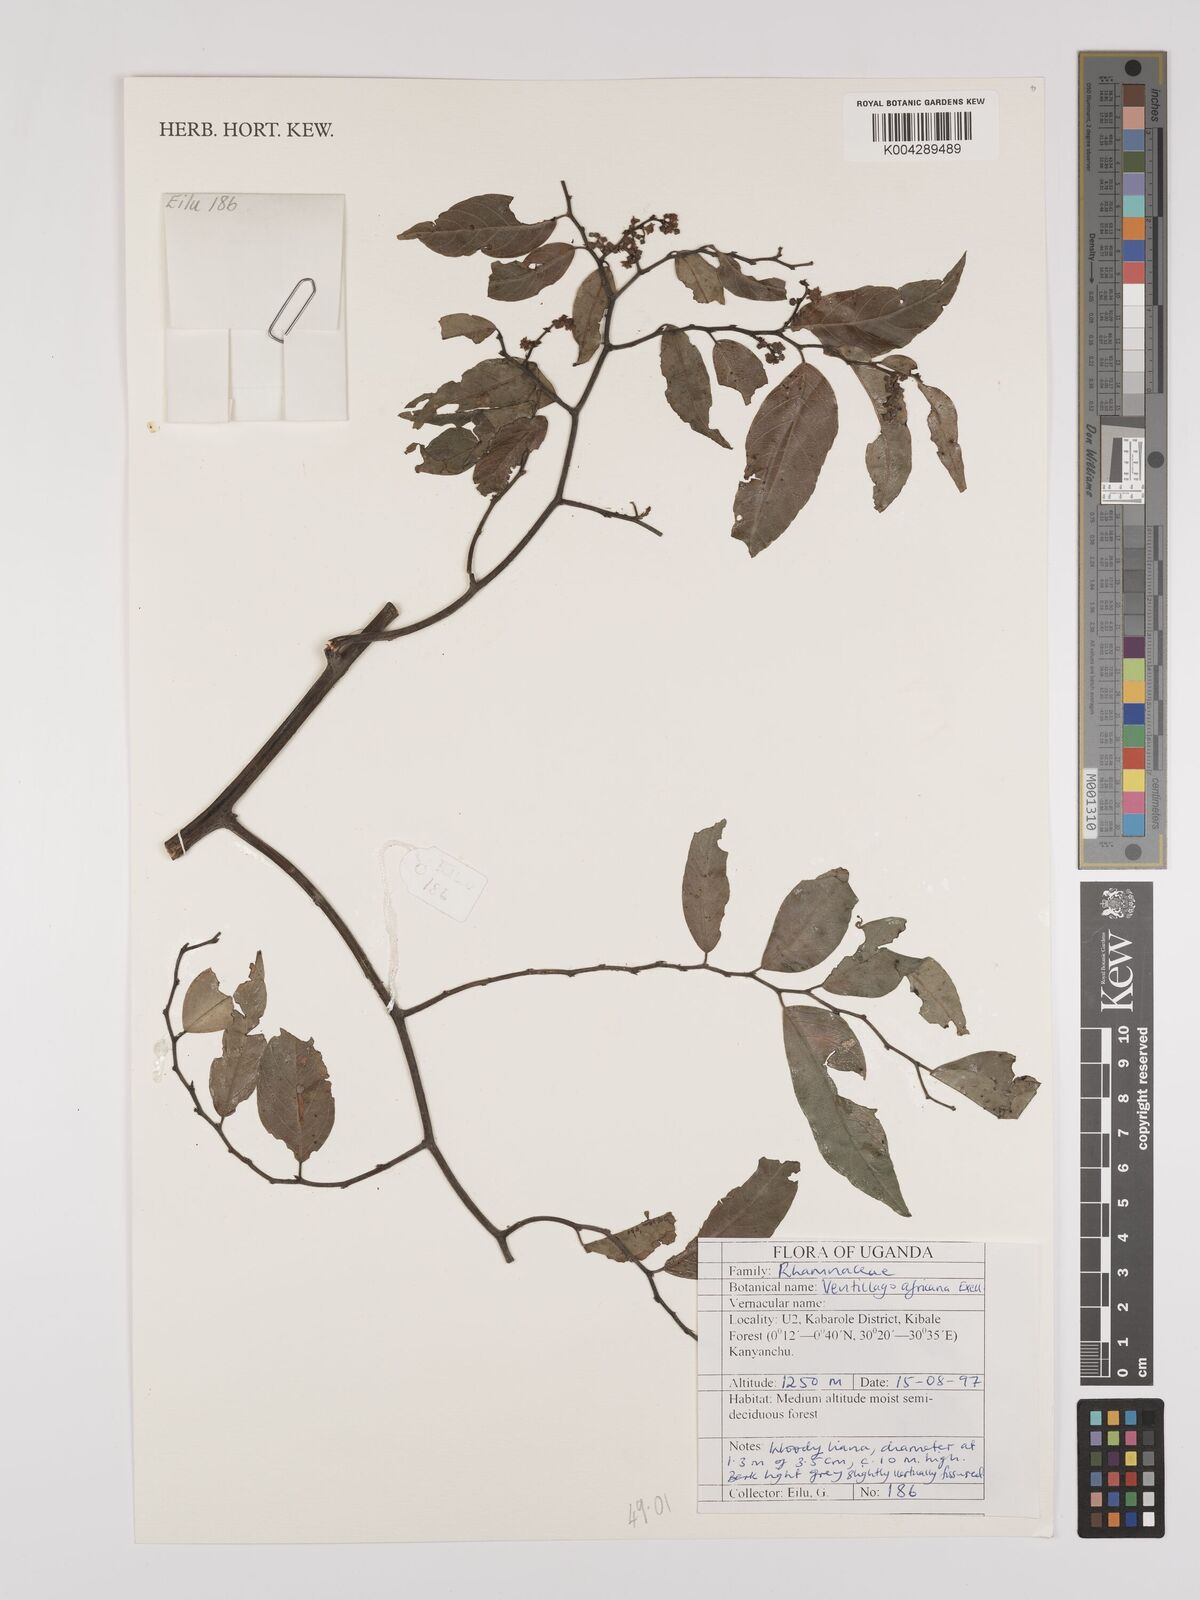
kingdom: Plantae
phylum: Tracheophyta
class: Magnoliopsida
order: Rosales
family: Rhamnaceae
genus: Ventilago
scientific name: Ventilago africana
